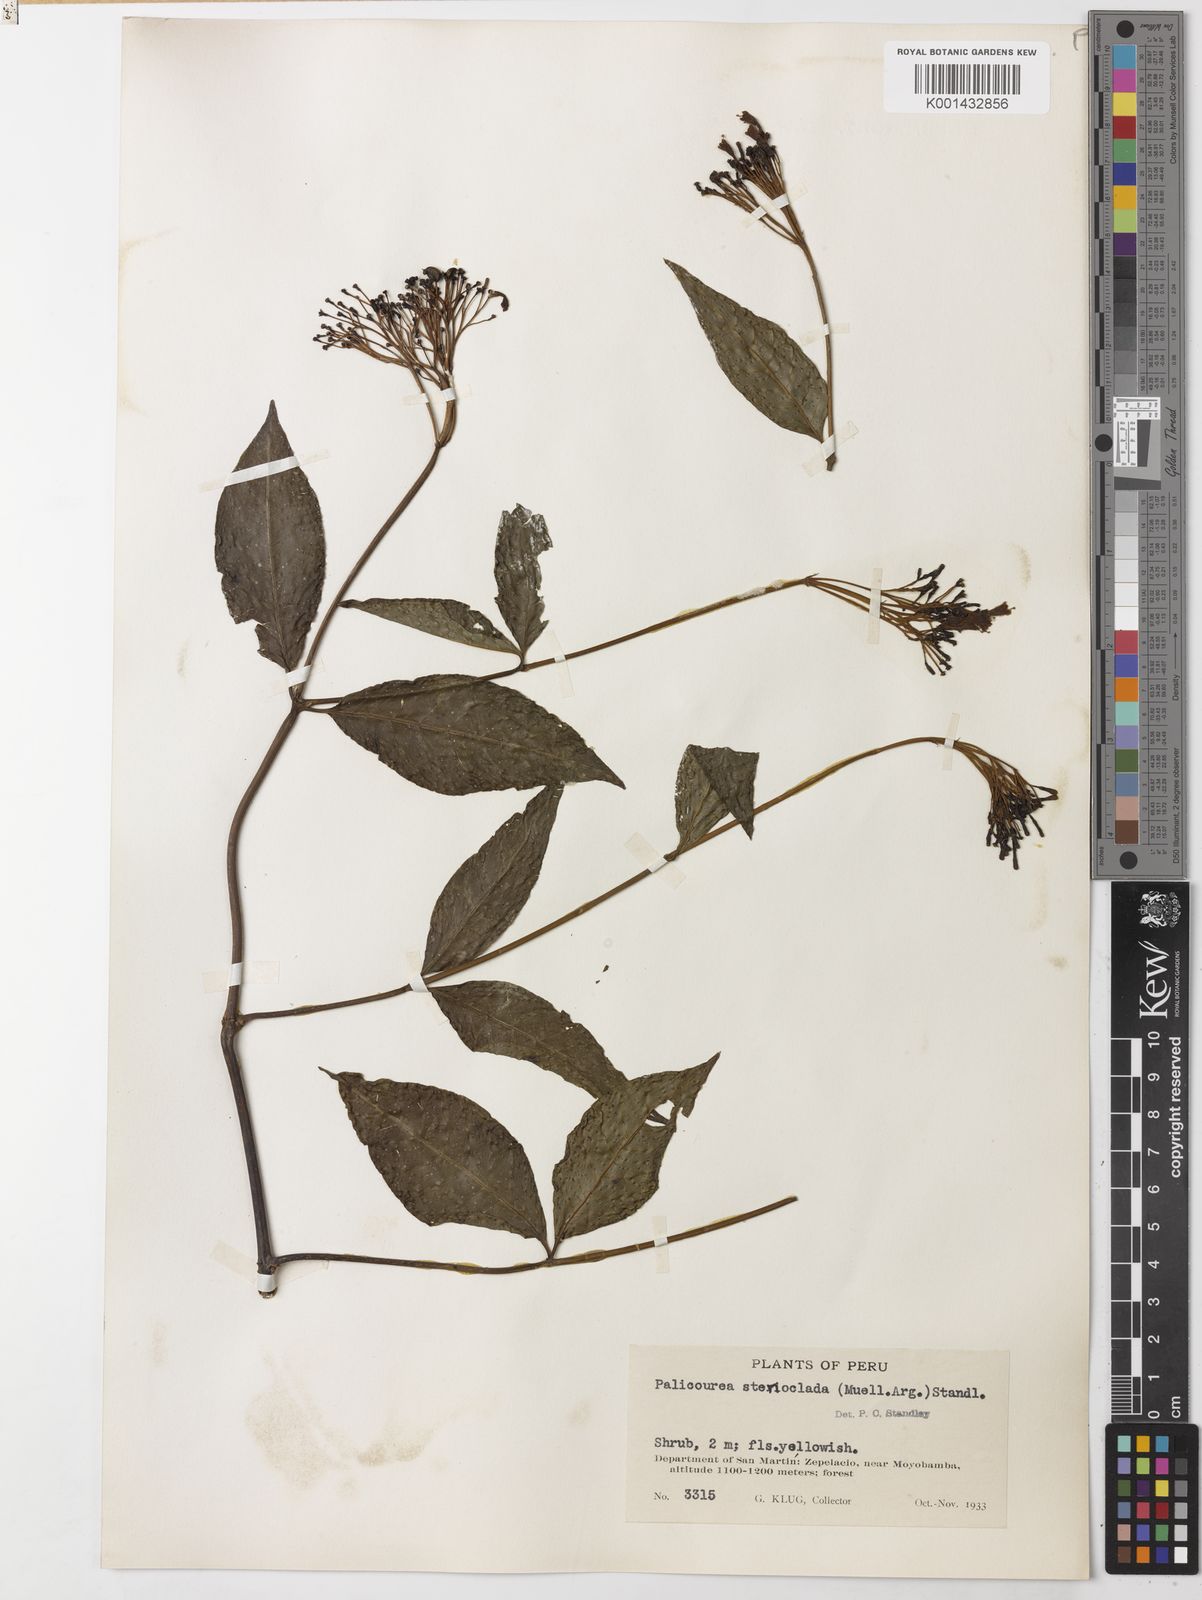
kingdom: Plantae
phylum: Tracheophyta
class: Magnoliopsida
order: Gentianales
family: Rubiaceae
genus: Palicourea
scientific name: Palicourea croceoides
